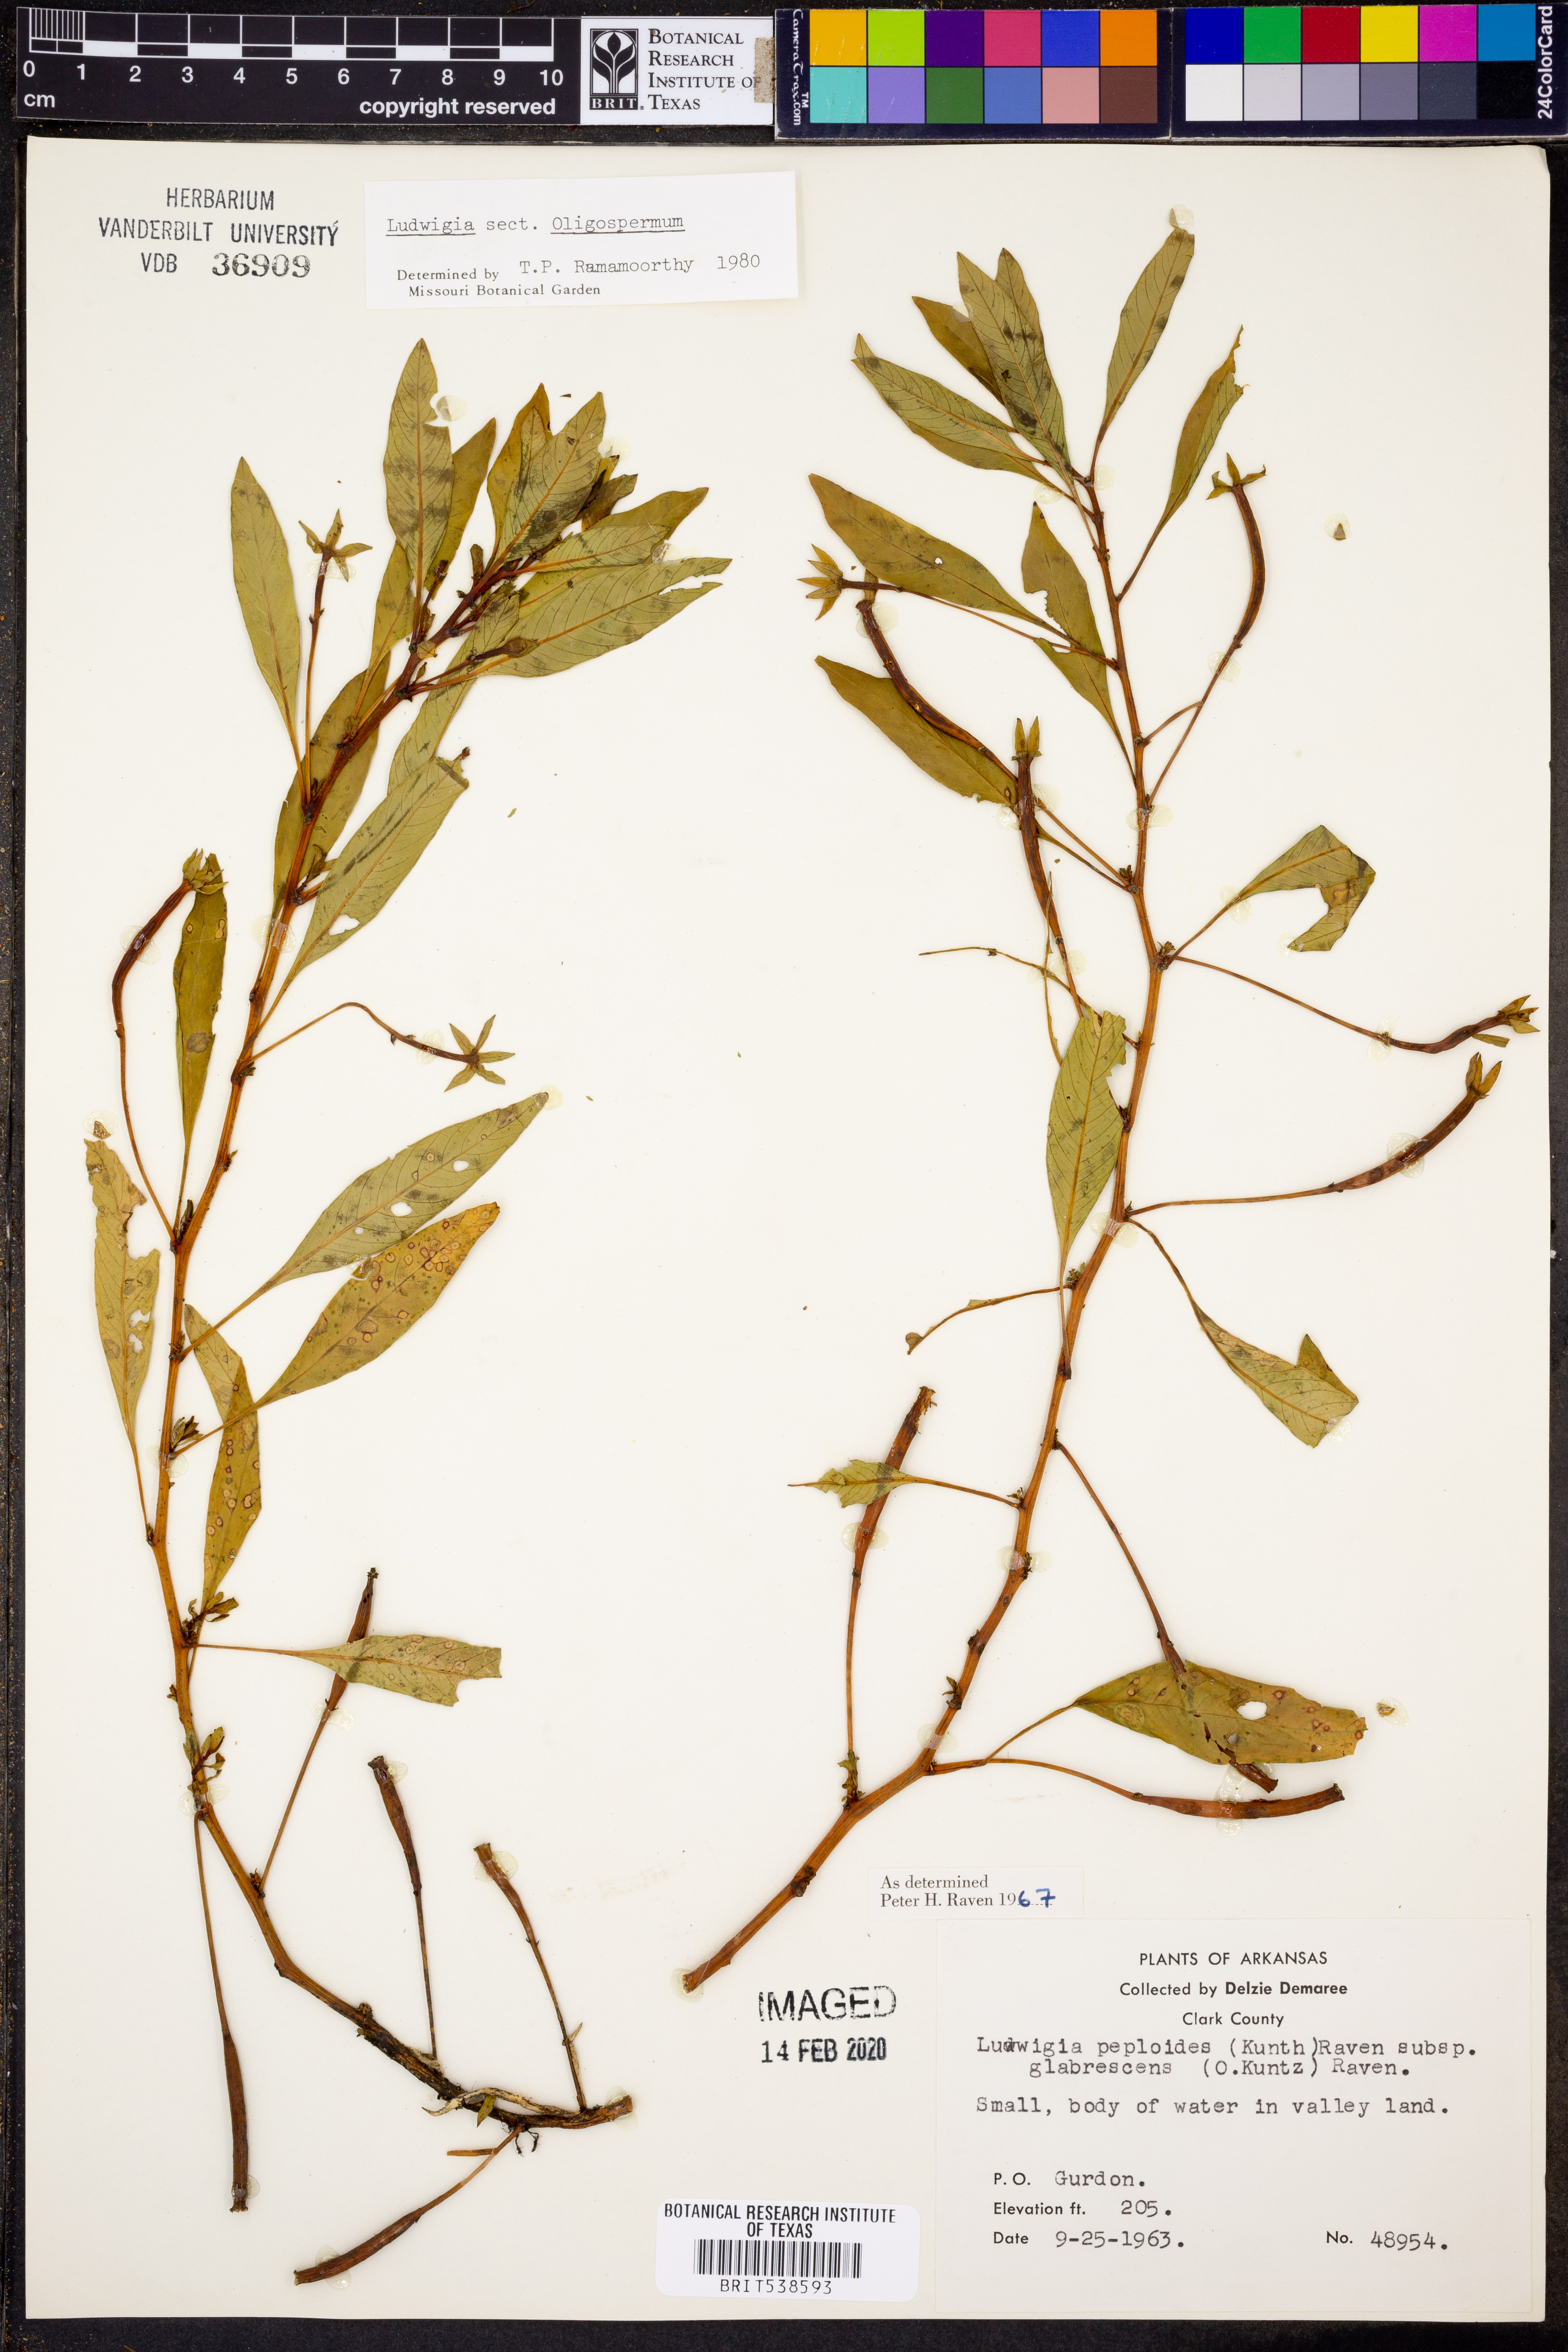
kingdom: Plantae
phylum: Tracheophyta
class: Magnoliopsida
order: Myrtales
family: Onagraceae
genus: Ludwigia
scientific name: Ludwigia peploides
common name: Floating primrose-willow
